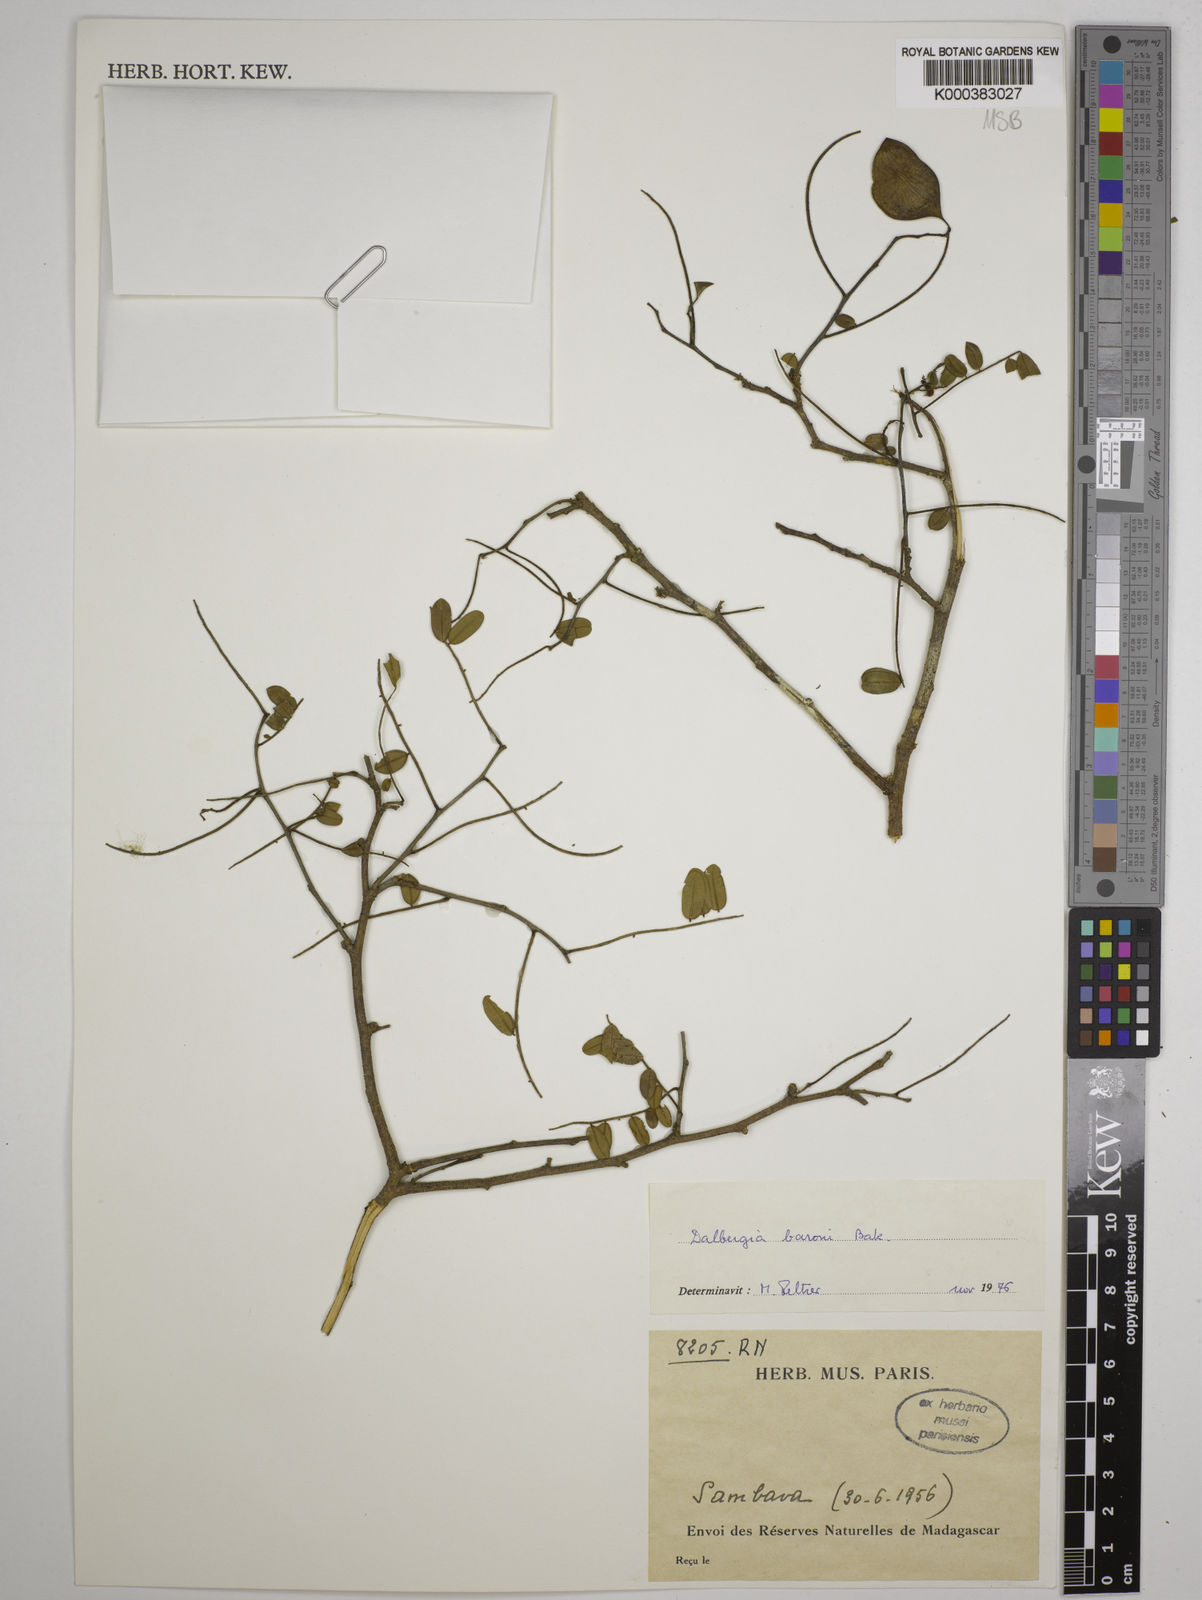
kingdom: Plantae
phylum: Tracheophyta
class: Magnoliopsida
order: Fabales
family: Fabaceae
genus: Dalbergia
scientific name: Dalbergia baronii
